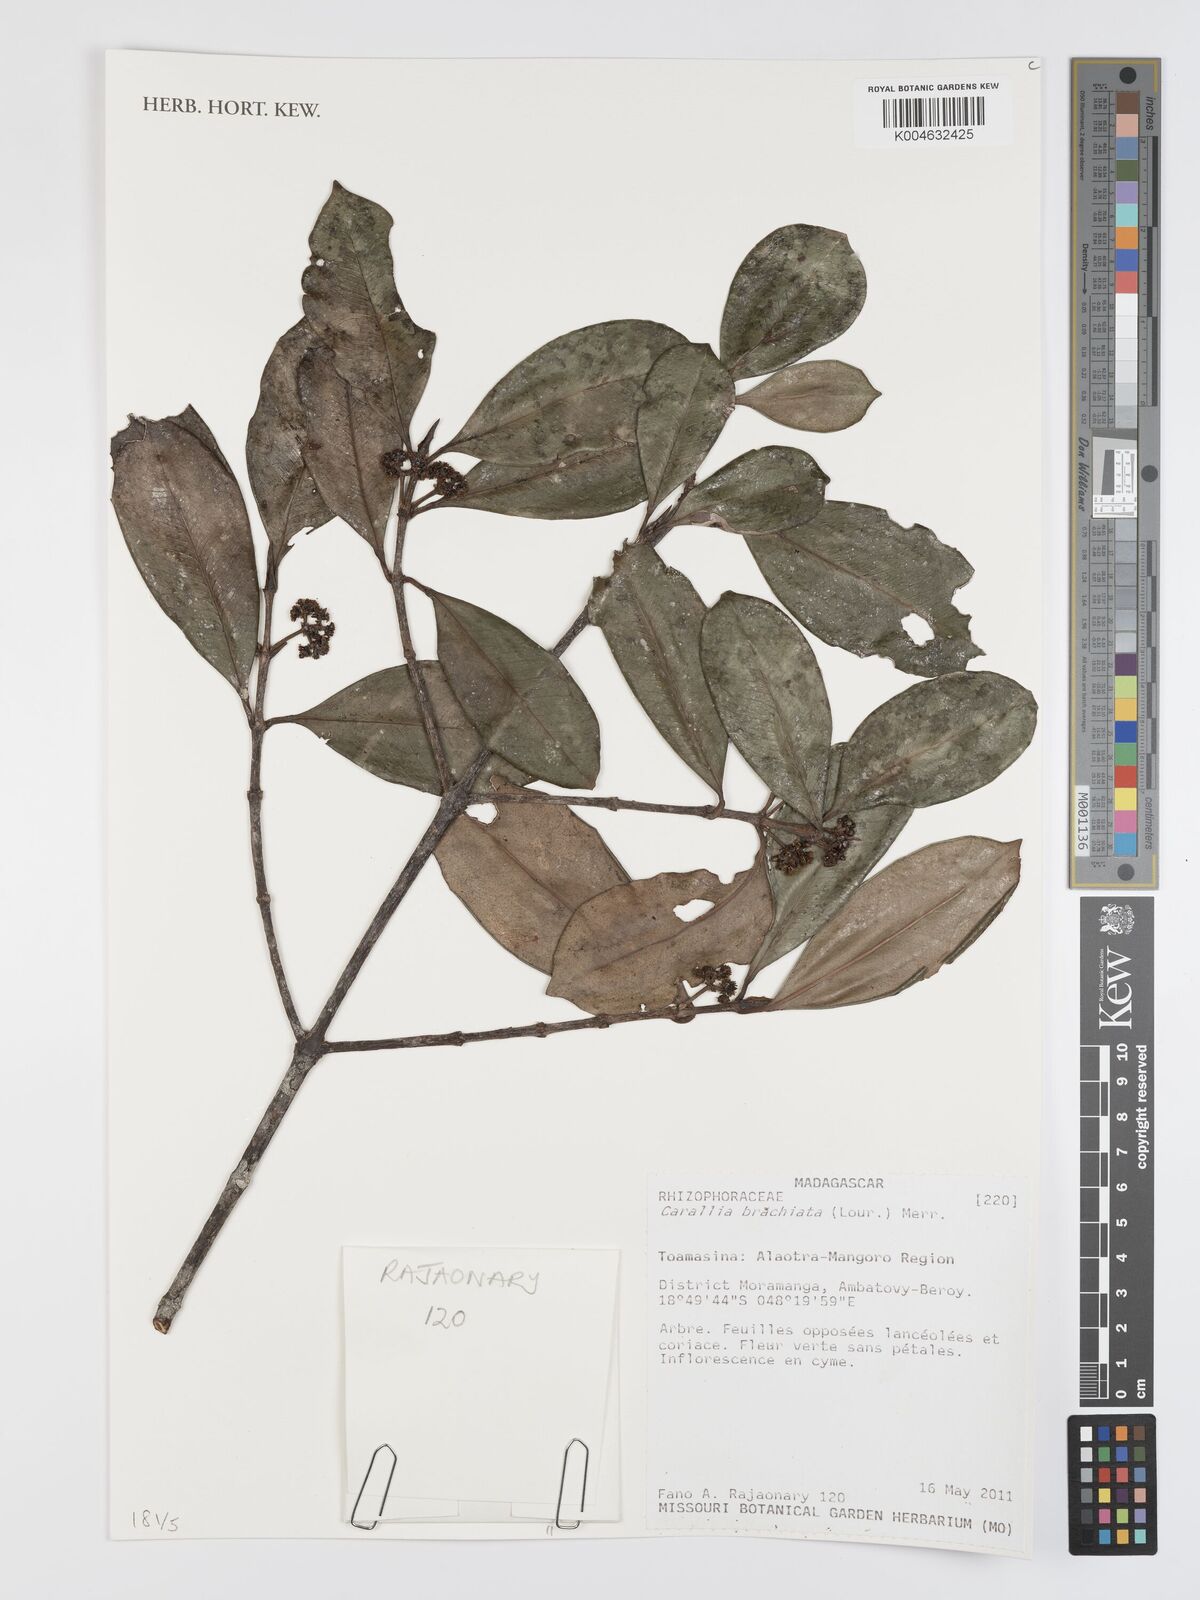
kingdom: Plantae
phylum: Tracheophyta
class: Magnoliopsida
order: Malpighiales
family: Rhizophoraceae
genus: Carallia
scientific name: Carallia brachiata
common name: Carallawood
